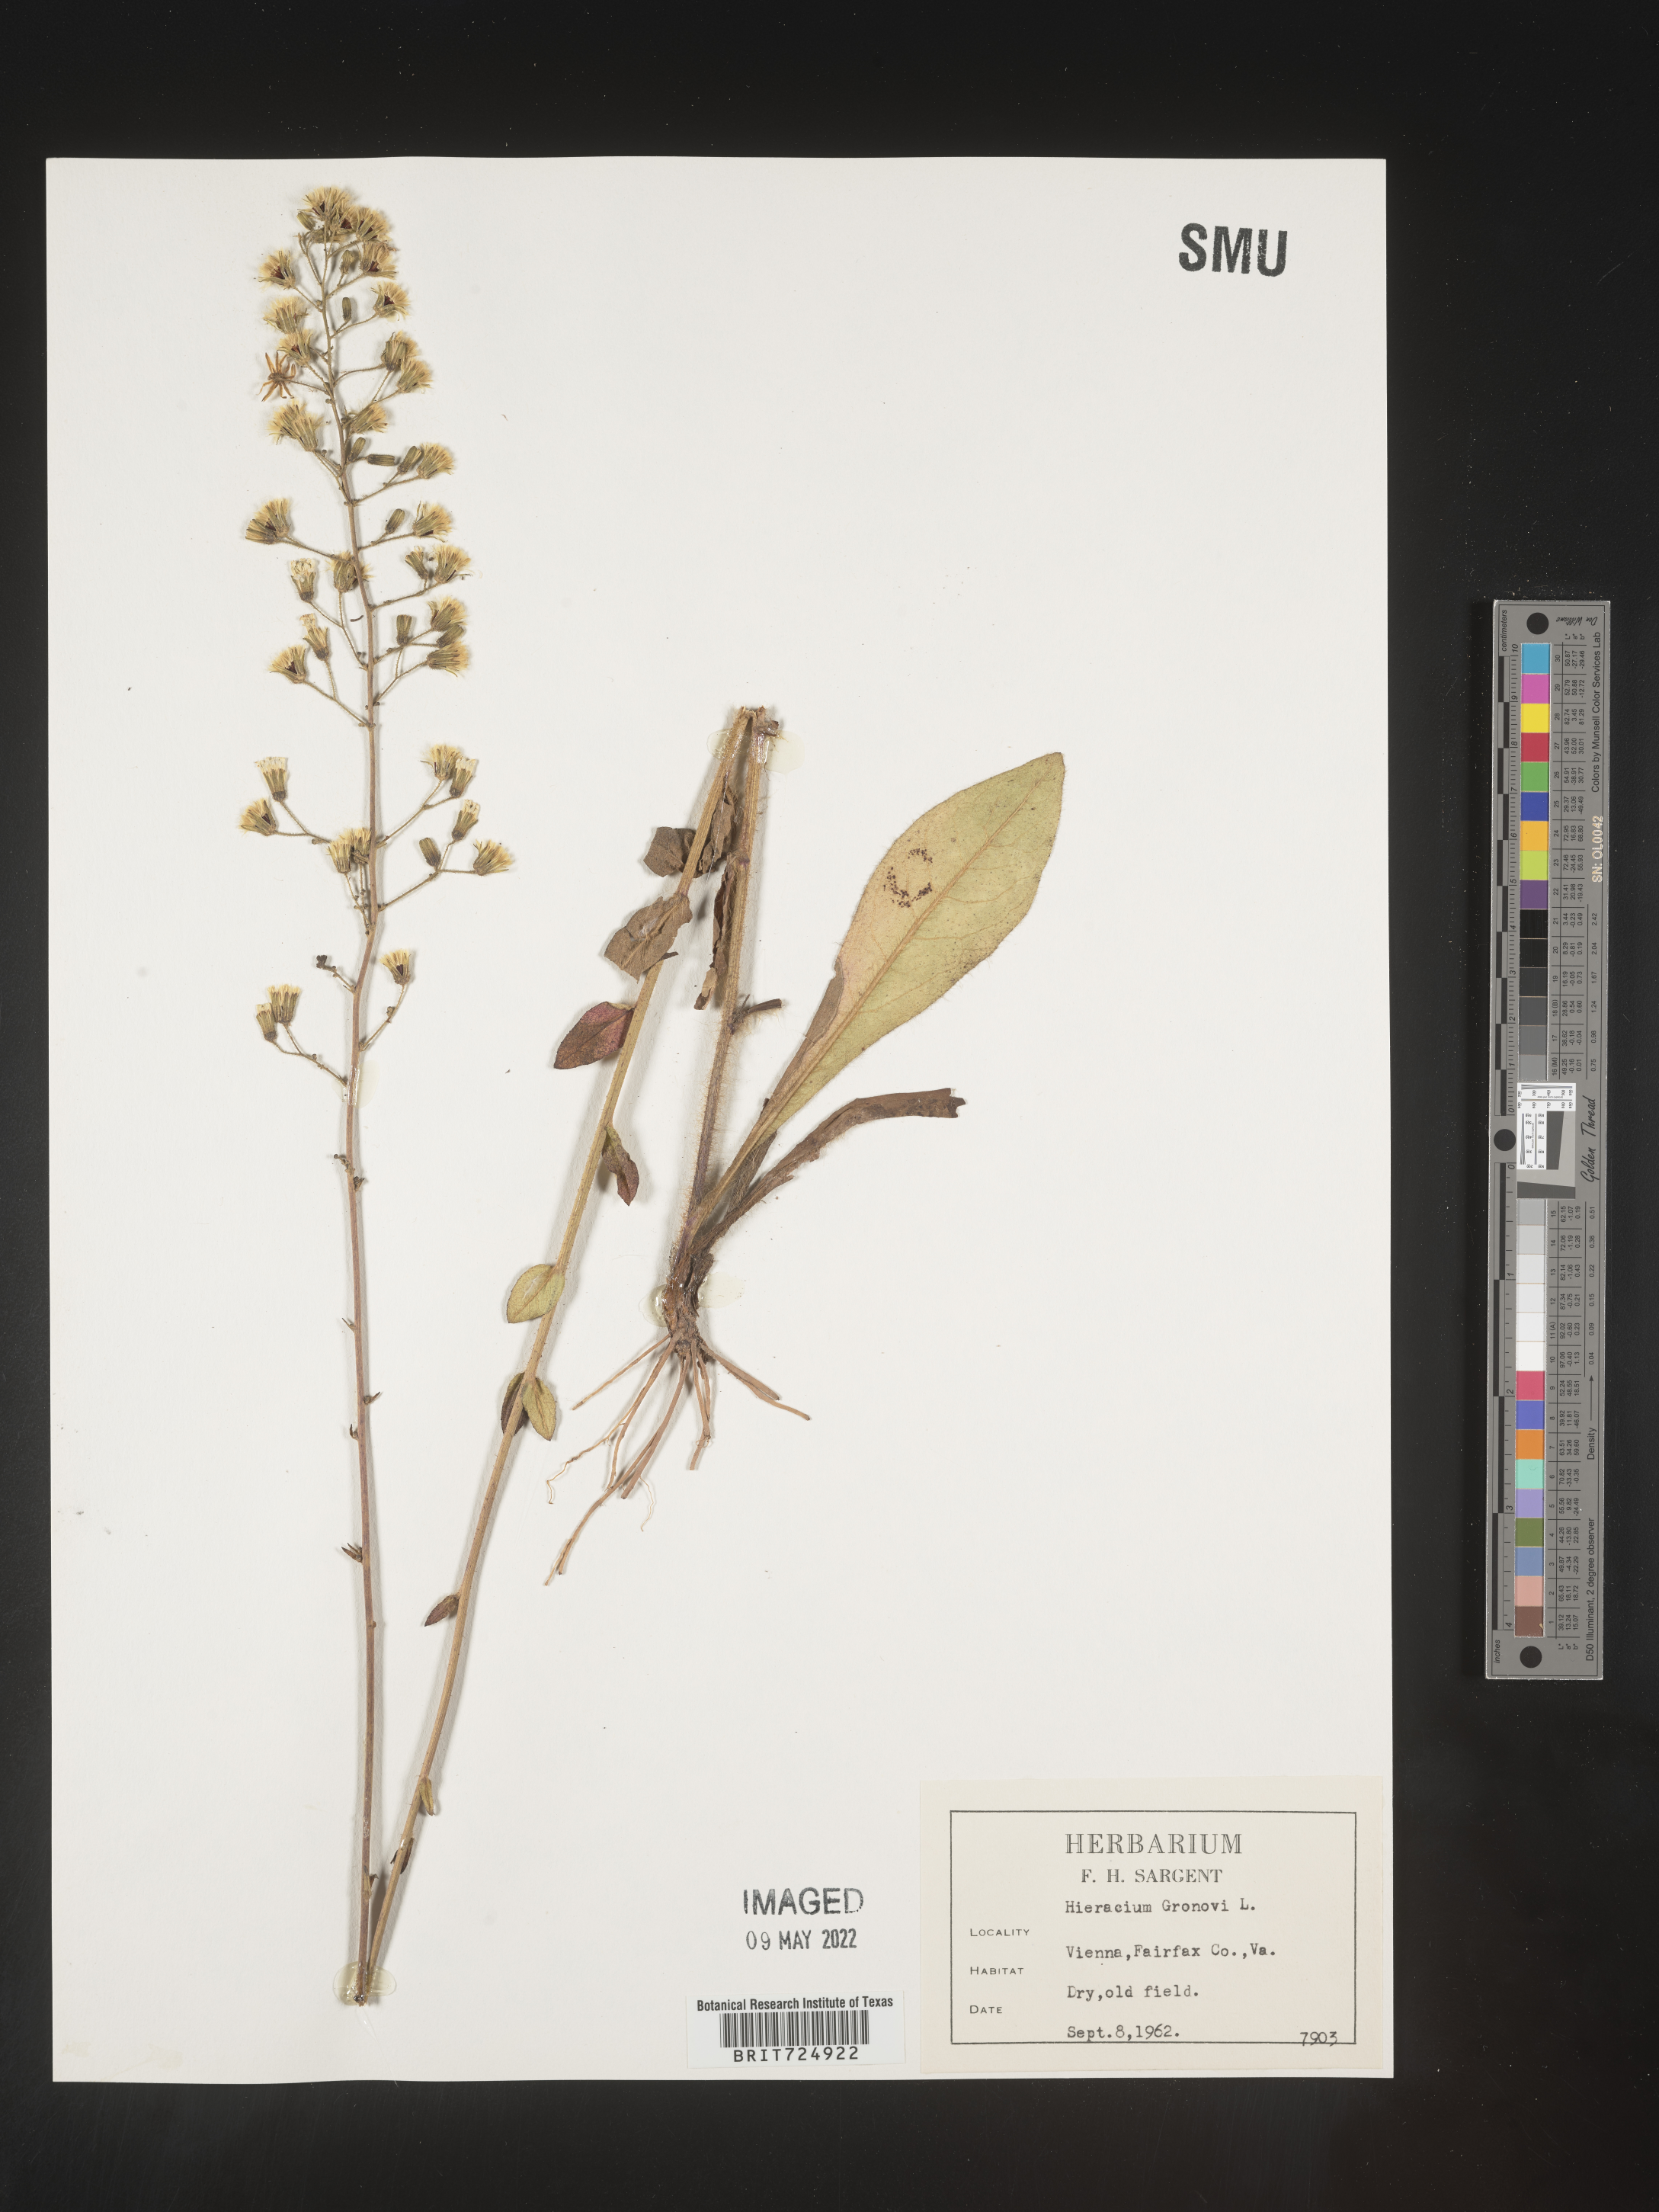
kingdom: Plantae
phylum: Tracheophyta
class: Magnoliopsida
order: Asterales
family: Asteraceae
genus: Hieracium
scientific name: Hieracium gronovii
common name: Beaked hawkweed
